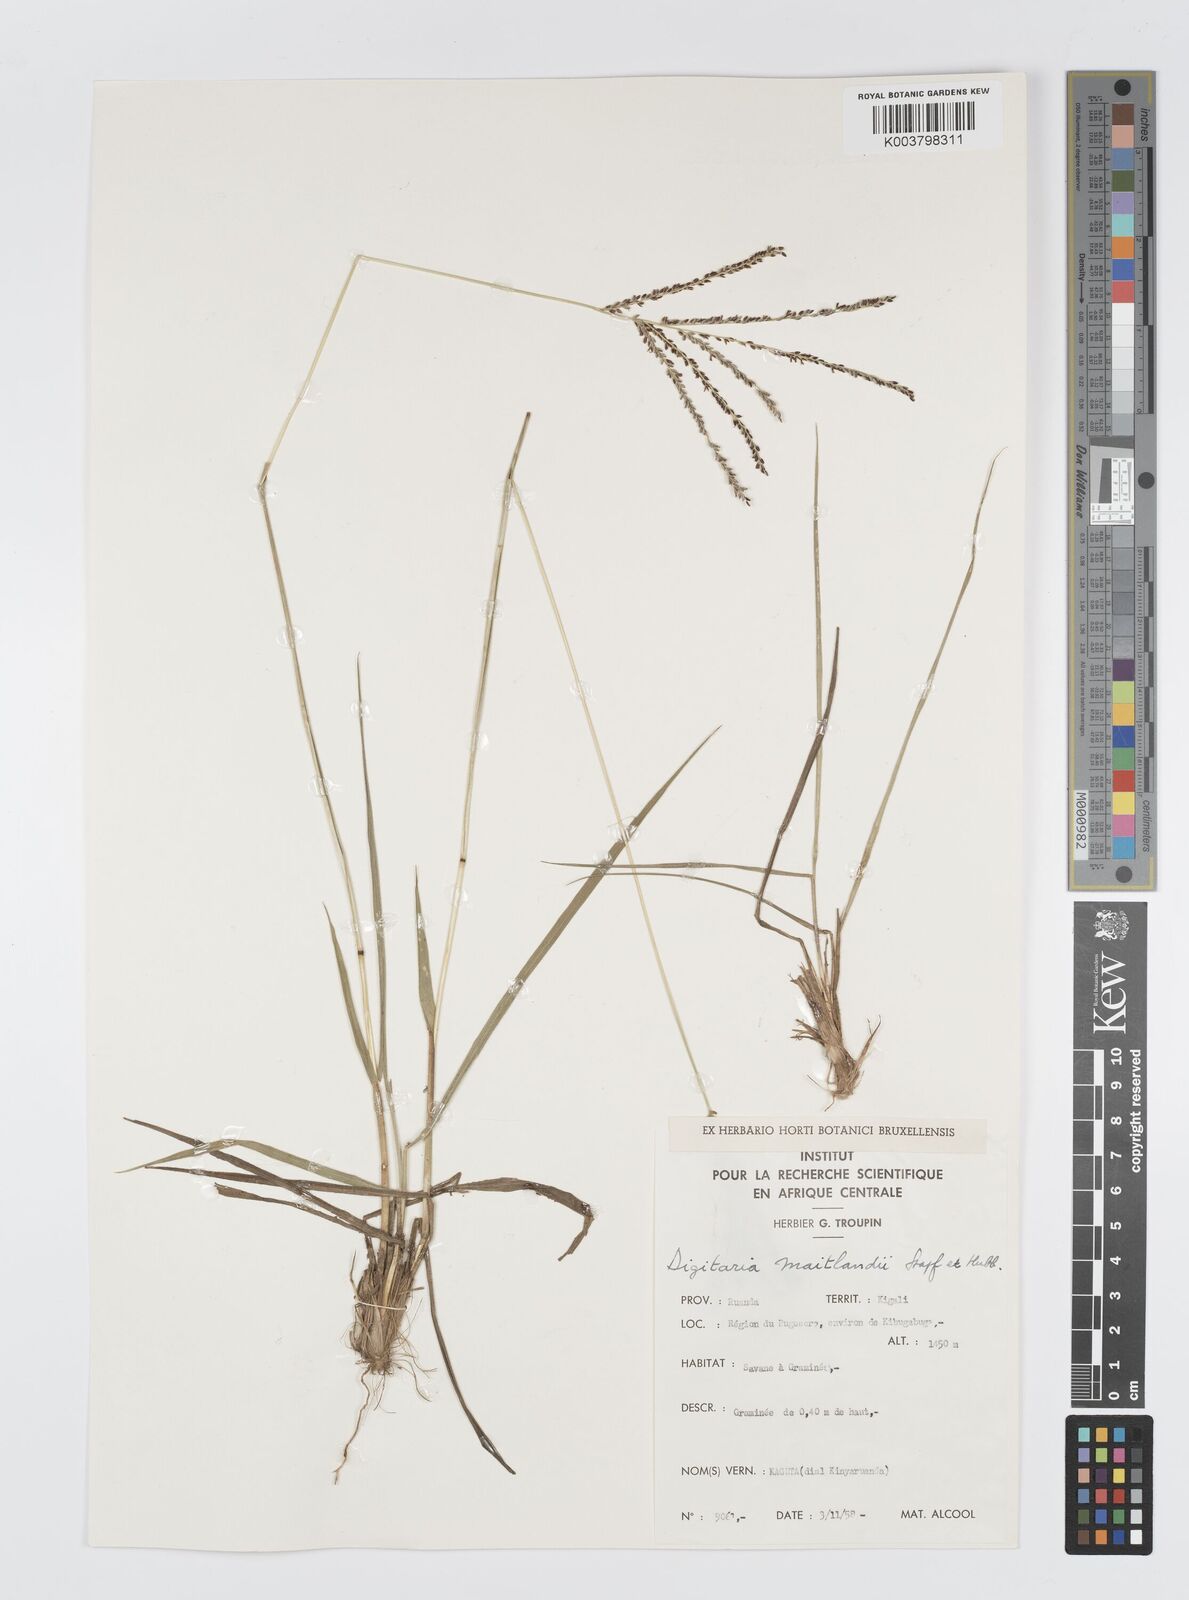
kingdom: Plantae
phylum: Tracheophyta
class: Liliopsida
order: Poales
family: Poaceae
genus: Digitaria
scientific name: Digitaria maitlandii
